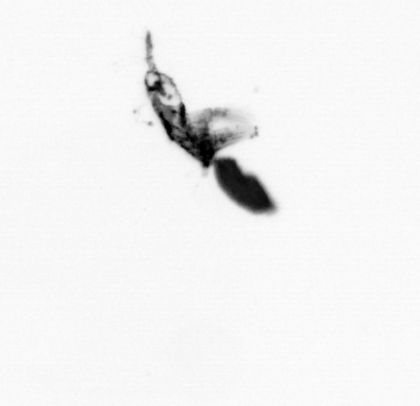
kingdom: Animalia
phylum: Arthropoda
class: Copepoda
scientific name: Copepoda
